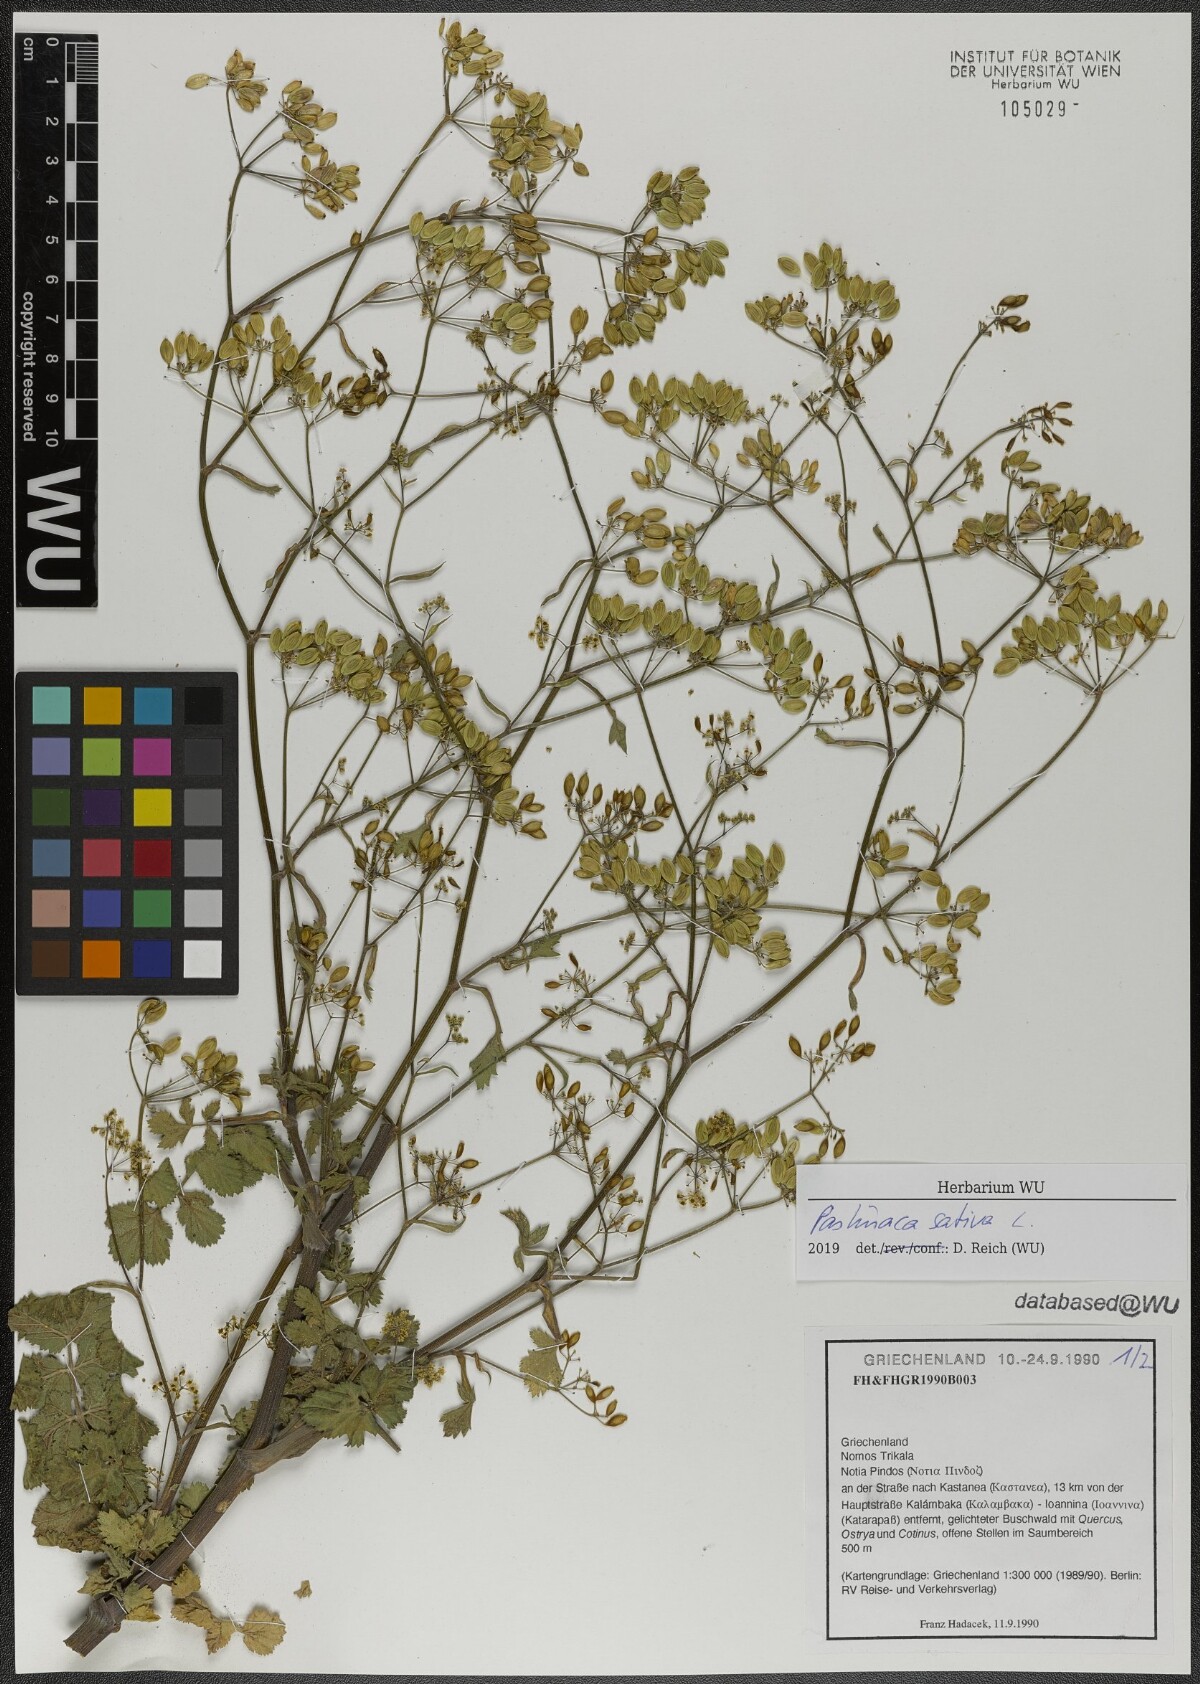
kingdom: Plantae
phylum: Tracheophyta
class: Magnoliopsida
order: Apiales
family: Apiaceae
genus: Pastinaca
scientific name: Pastinaca sativa
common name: Wild parsnip
